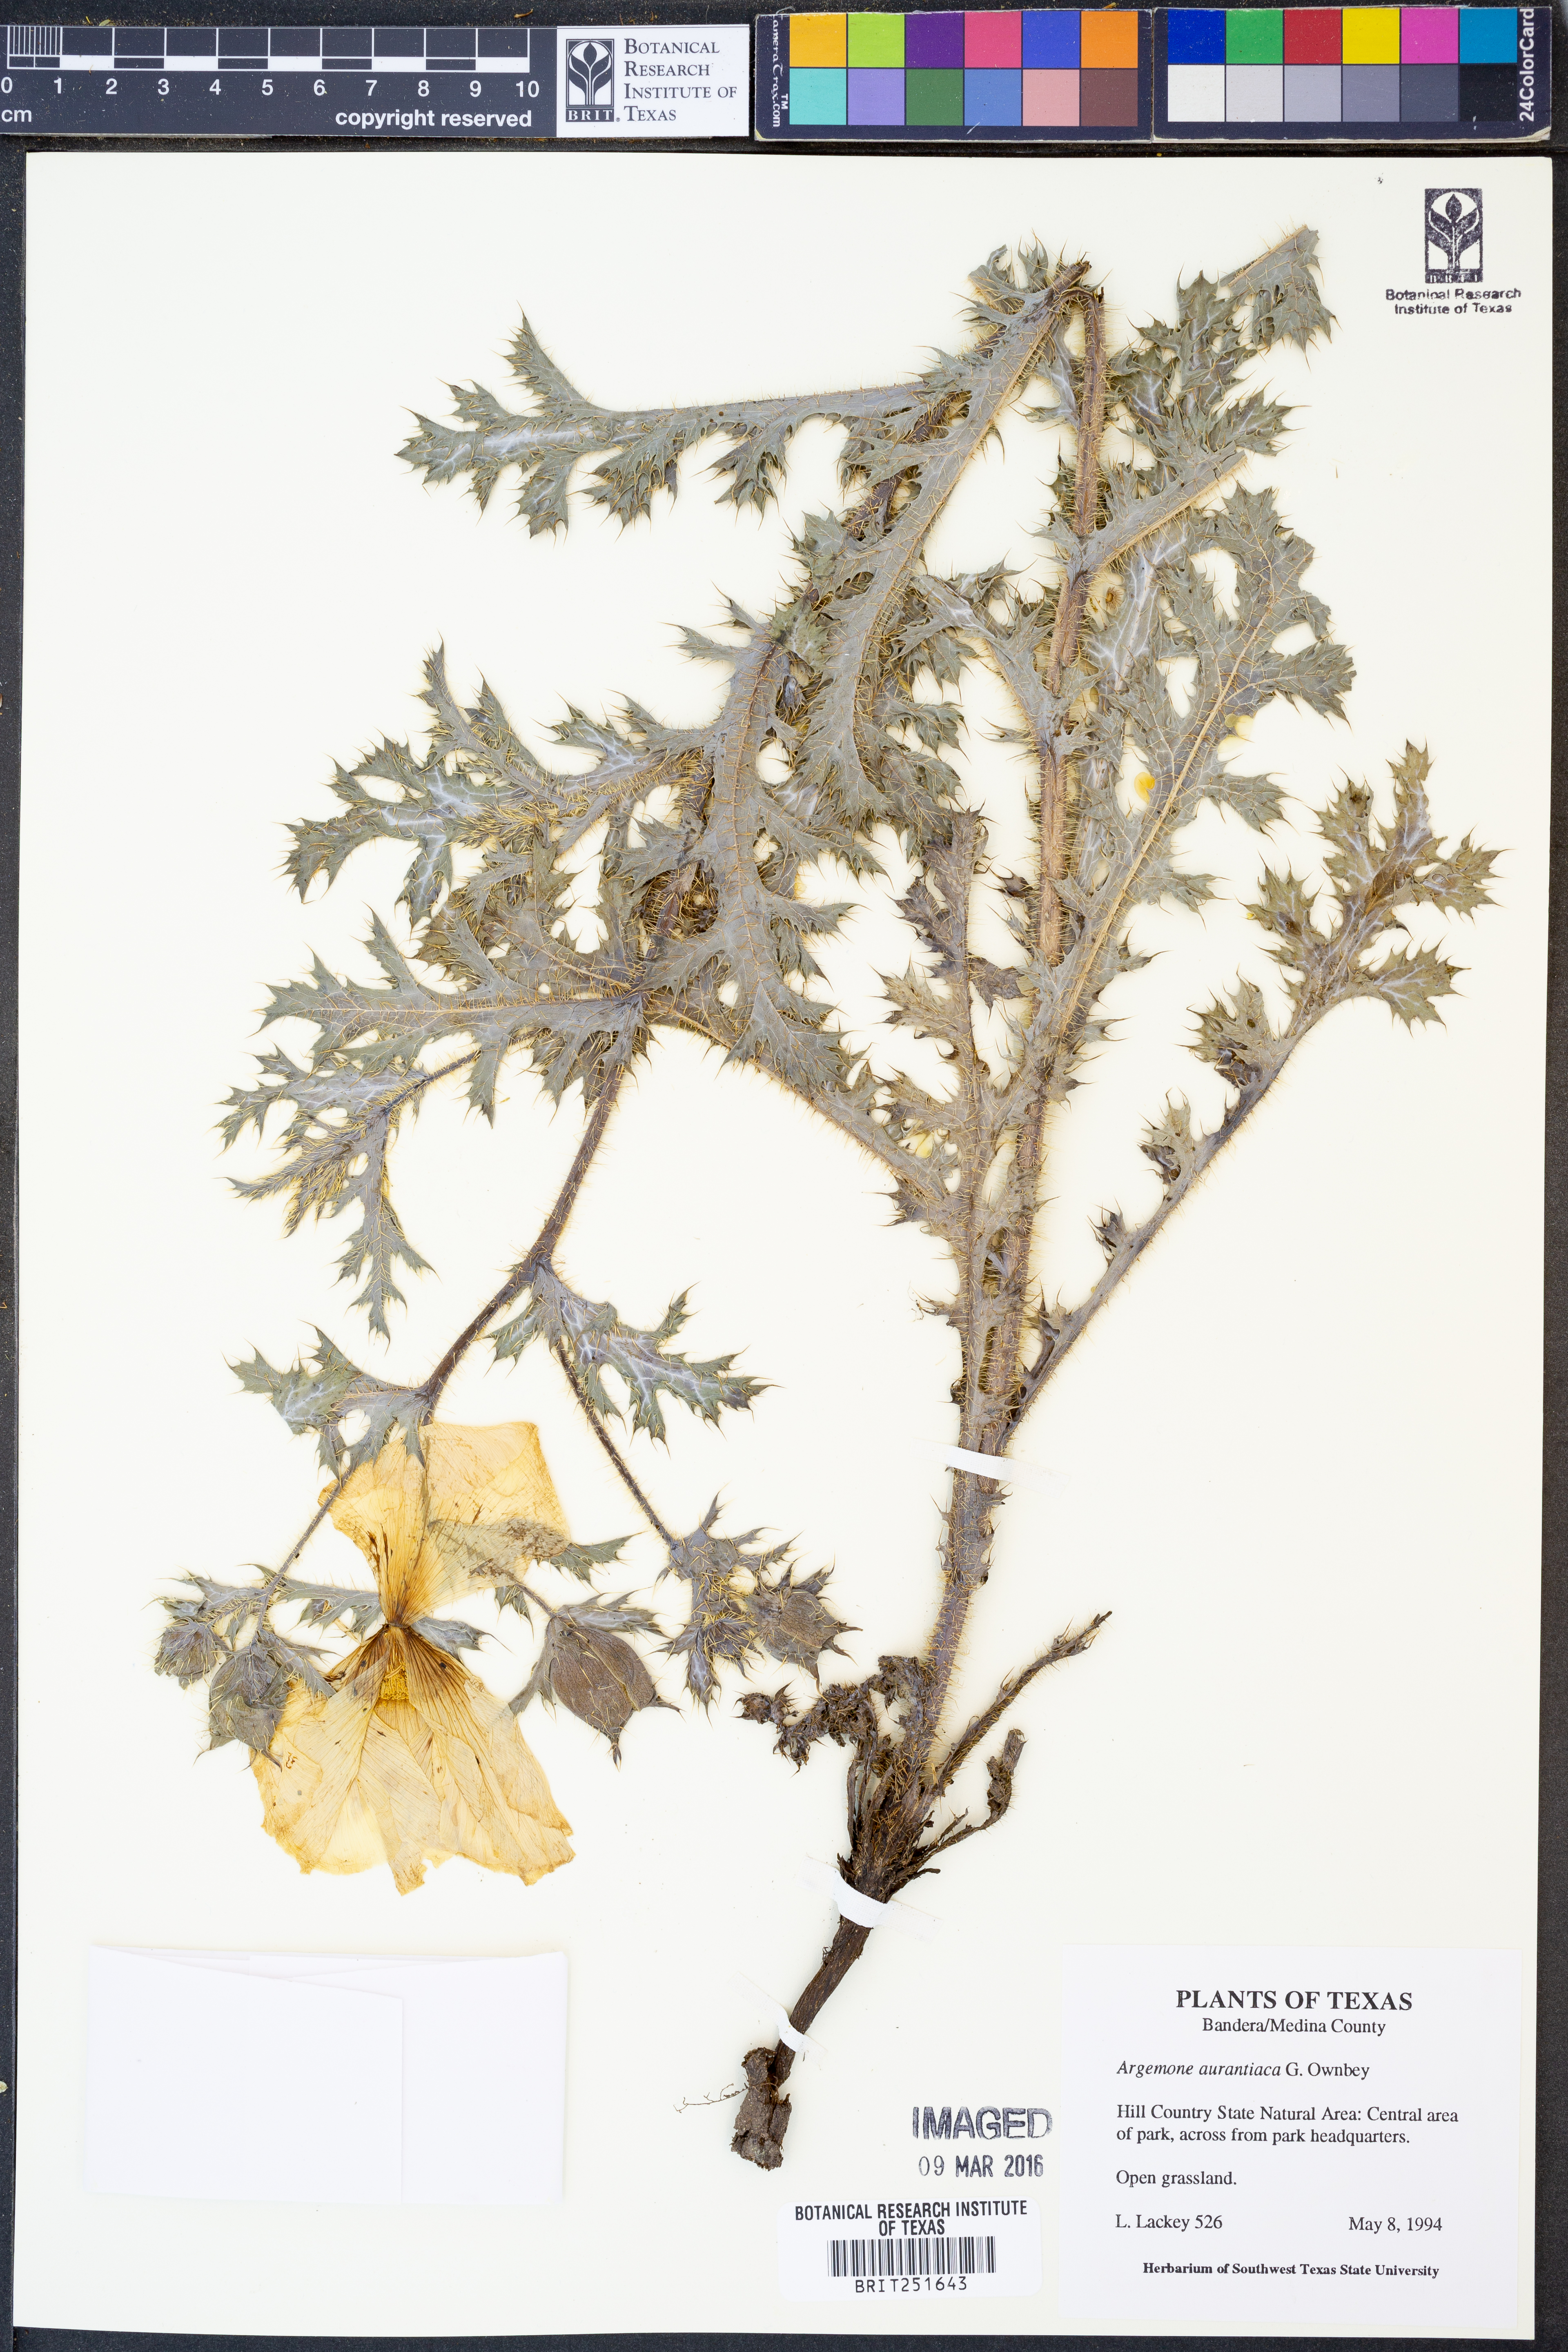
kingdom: Plantae
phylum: Tracheophyta
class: Magnoliopsida
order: Ranunculales
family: Papaveraceae
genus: Argemone
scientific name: Argemone aurantiaca
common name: Texas prickly-poppy
